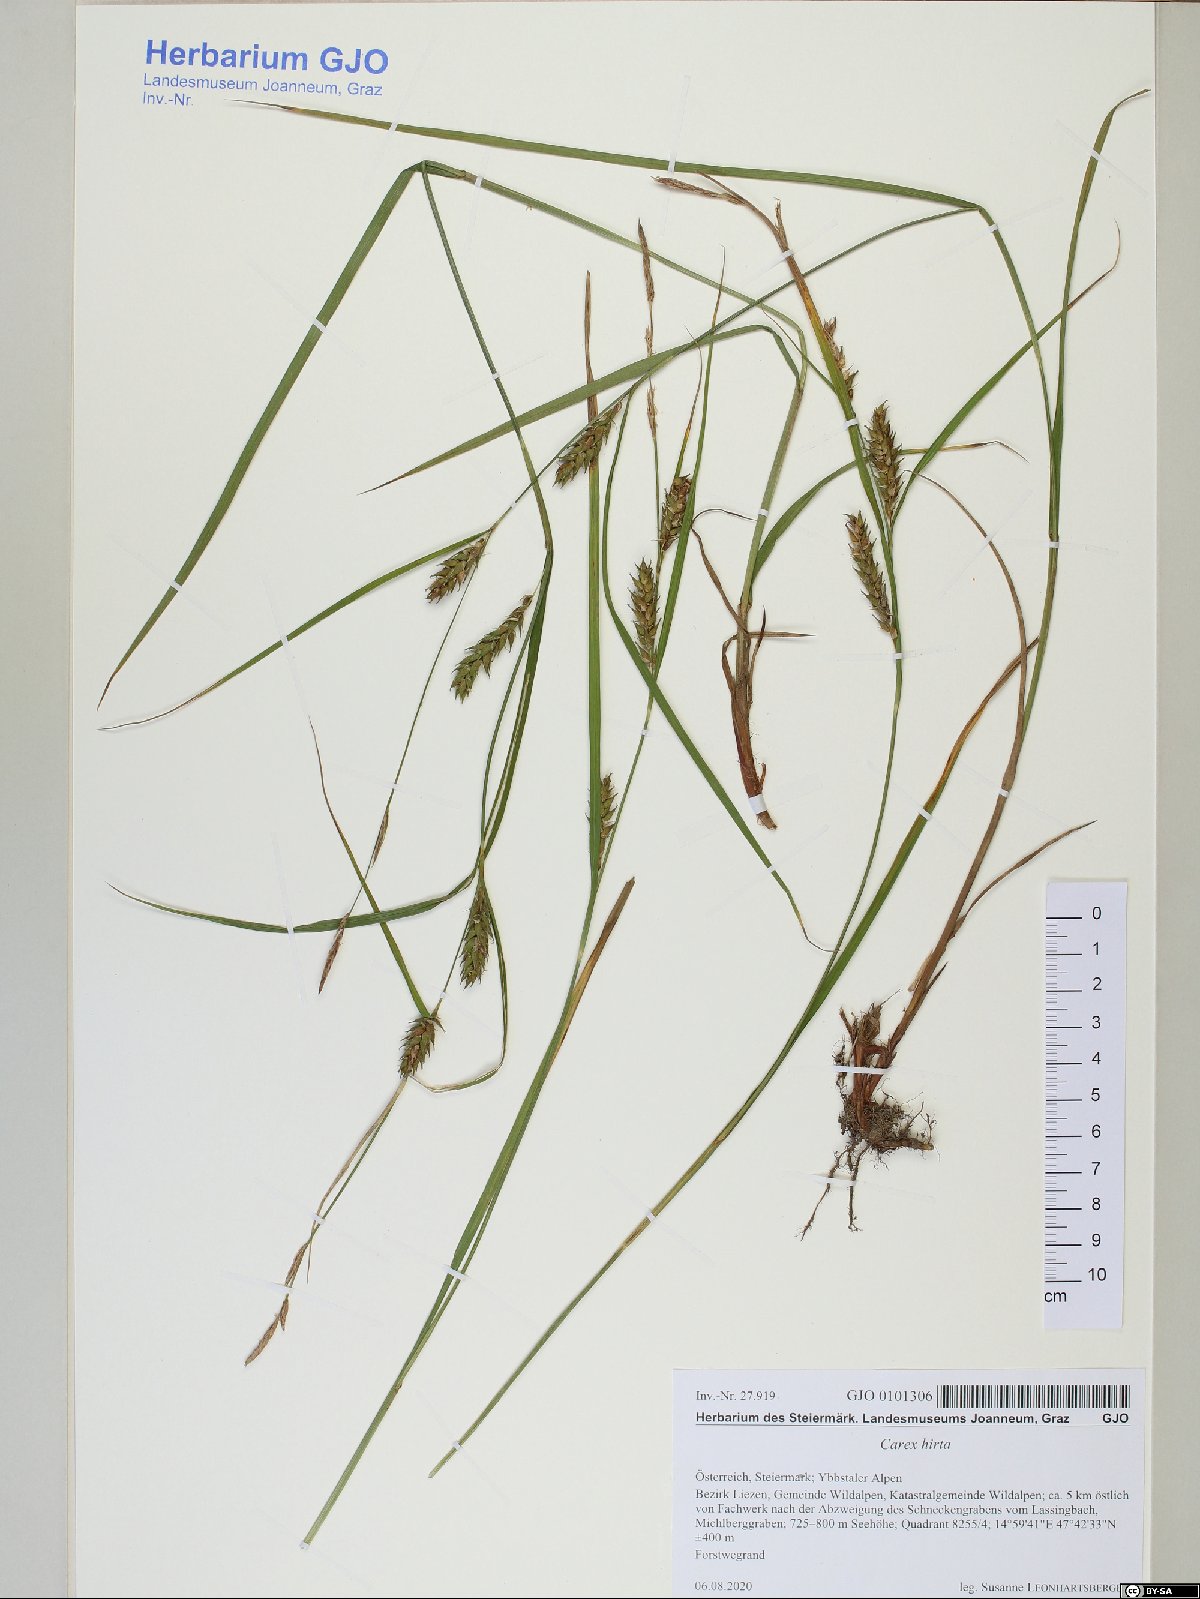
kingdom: Plantae
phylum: Tracheophyta
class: Liliopsida
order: Poales
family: Cyperaceae
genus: Carex
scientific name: Carex hirta
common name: Hairy sedge
